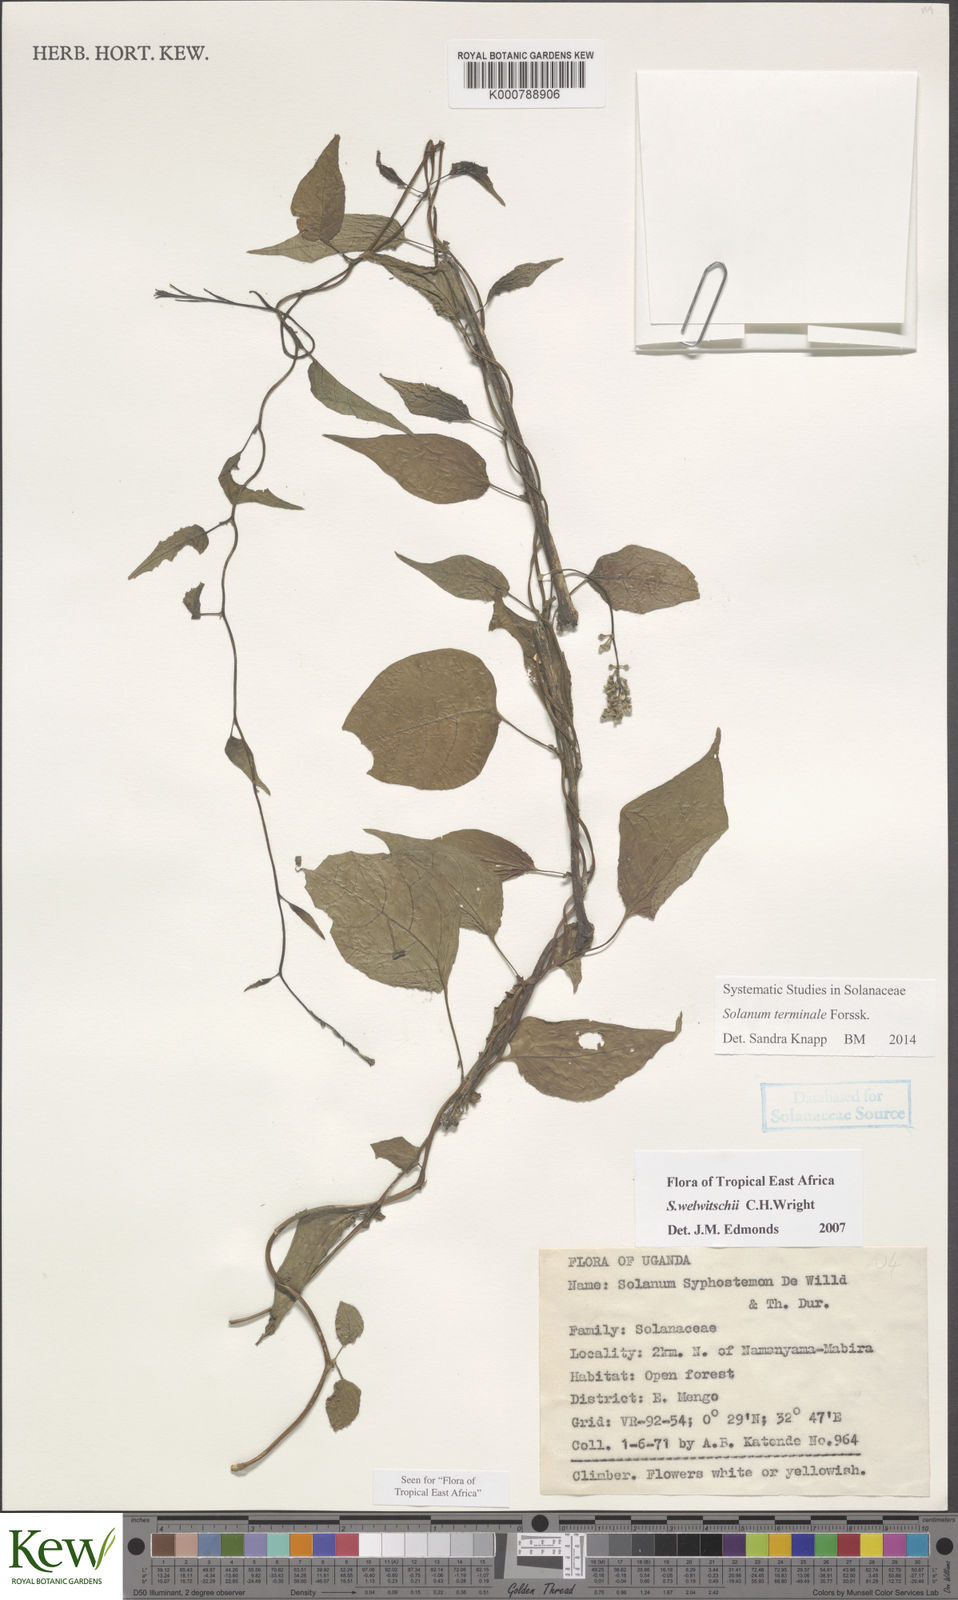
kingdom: Plantae
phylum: Tracheophyta
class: Magnoliopsida
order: Solanales
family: Solanaceae
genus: Solanum
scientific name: Solanum terminale
